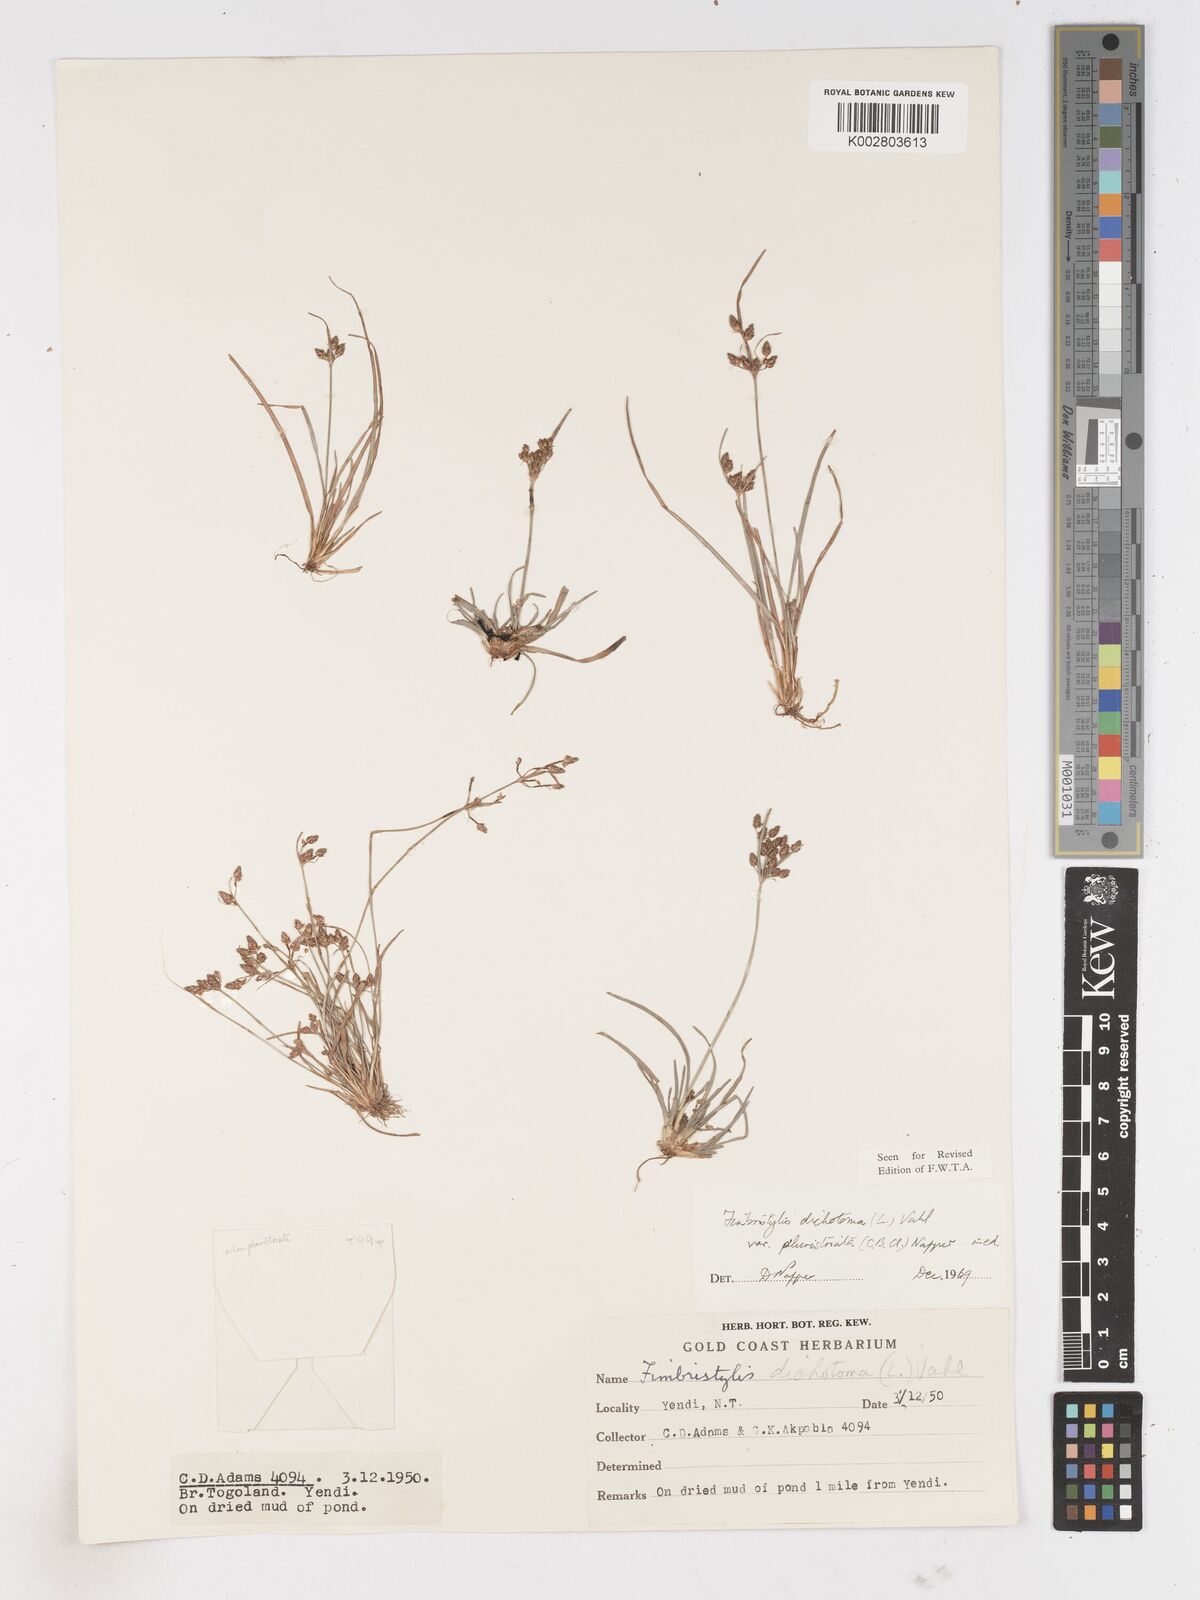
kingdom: Plantae
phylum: Tracheophyta
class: Liliopsida
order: Poales
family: Cyperaceae
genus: Fimbristylis
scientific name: Fimbristylis dichotoma
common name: Forked fimbry
